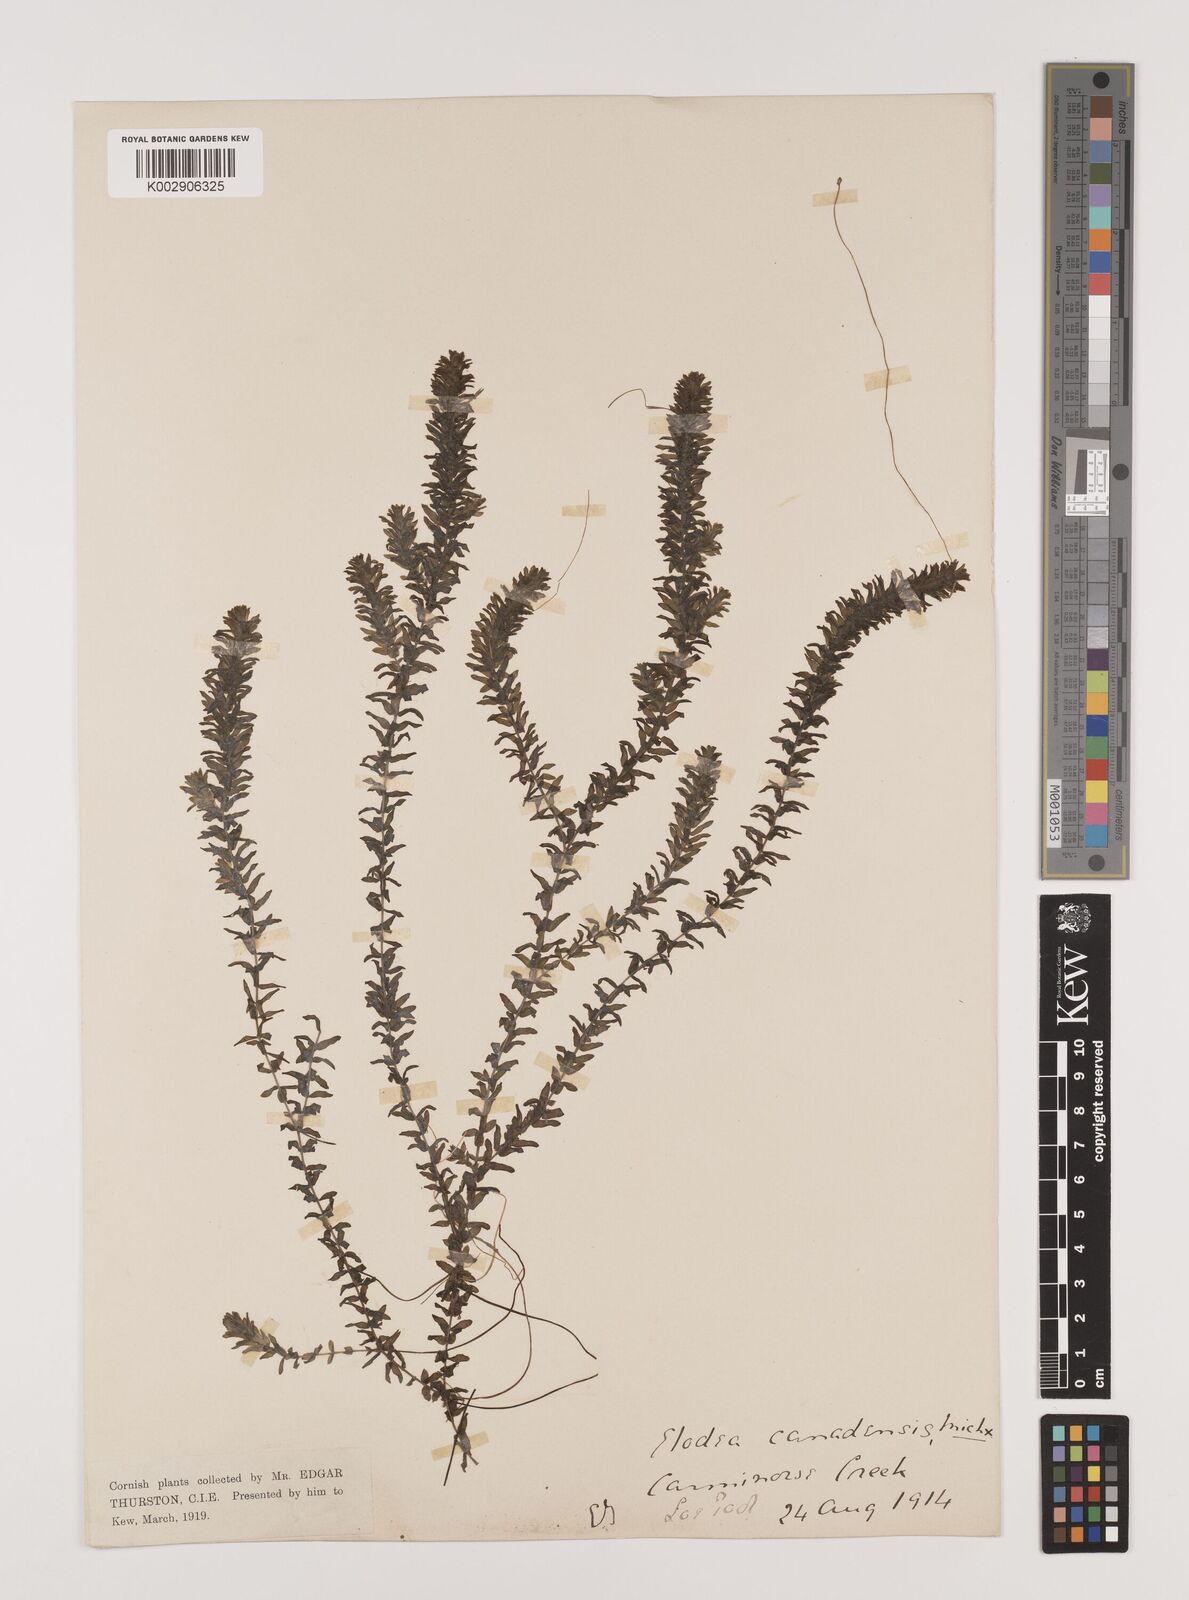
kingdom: Plantae
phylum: Tracheophyta
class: Liliopsida
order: Alismatales
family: Hydrocharitaceae
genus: Elodea
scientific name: Elodea canadensis
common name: Canadian waterweed
